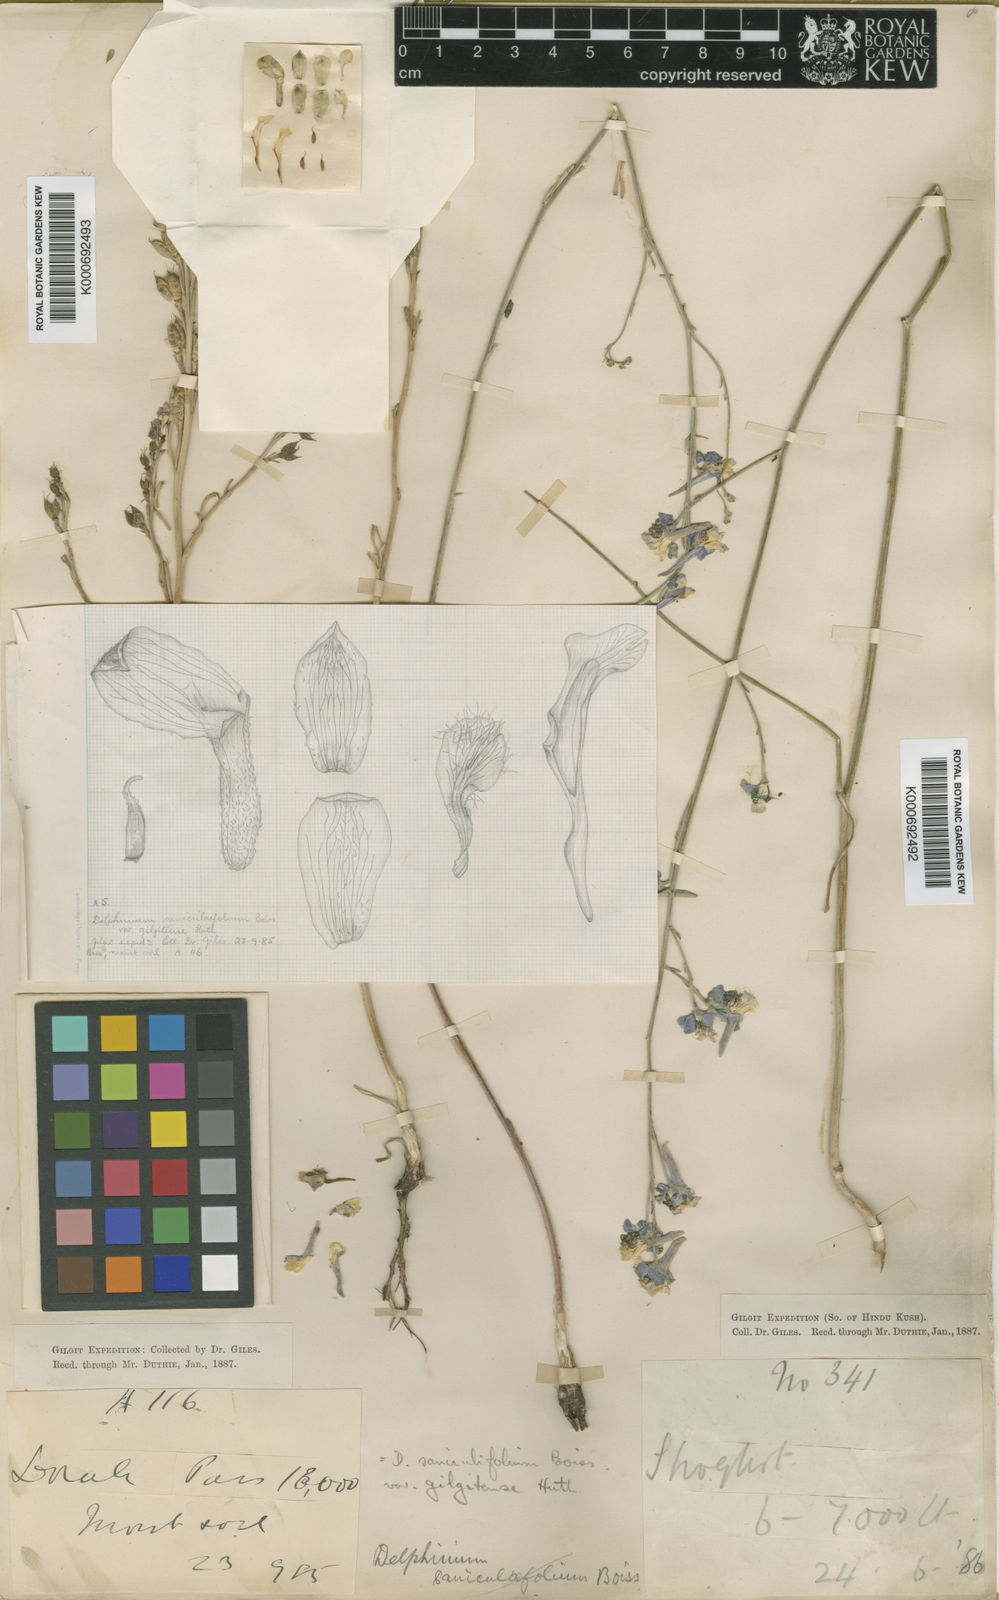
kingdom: Plantae
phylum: Tracheophyta
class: Magnoliopsida
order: Ranunculales
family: Ranunculaceae
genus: Delphinium
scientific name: Delphinium kohatense
